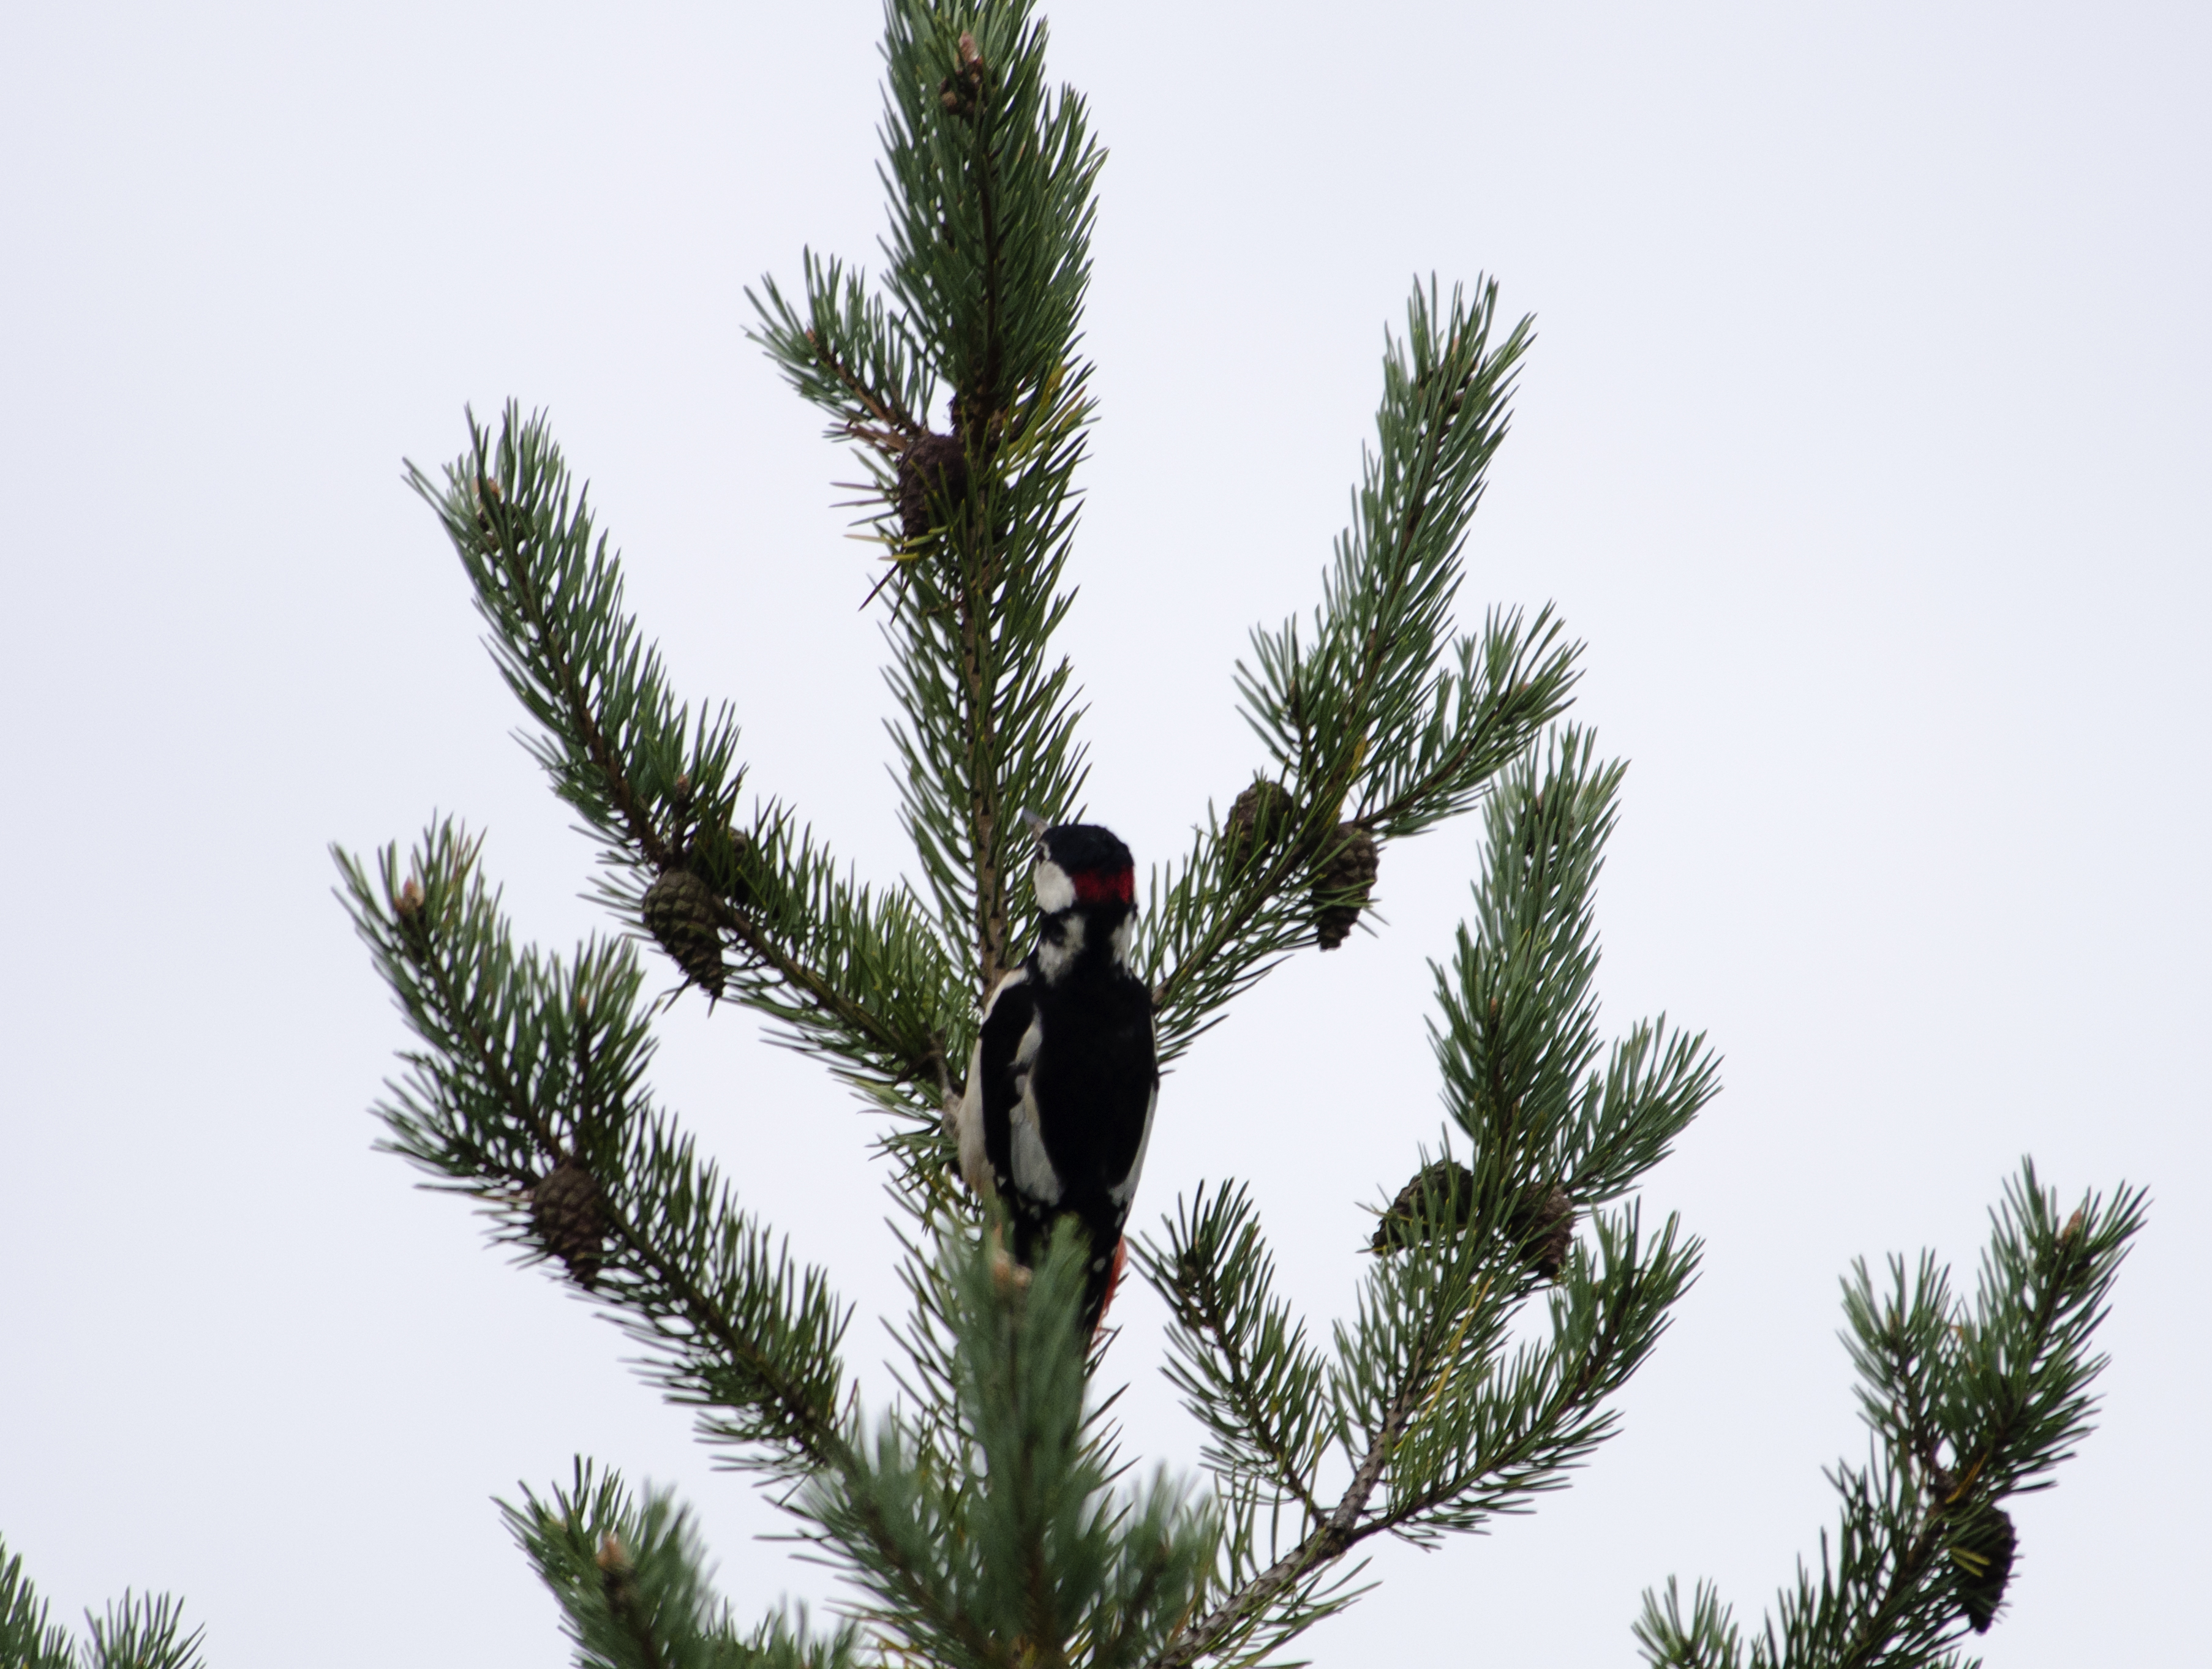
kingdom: Animalia
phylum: Chordata
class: Aves
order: Piciformes
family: Picidae
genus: Dendrocopos
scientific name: Dendrocopos major
